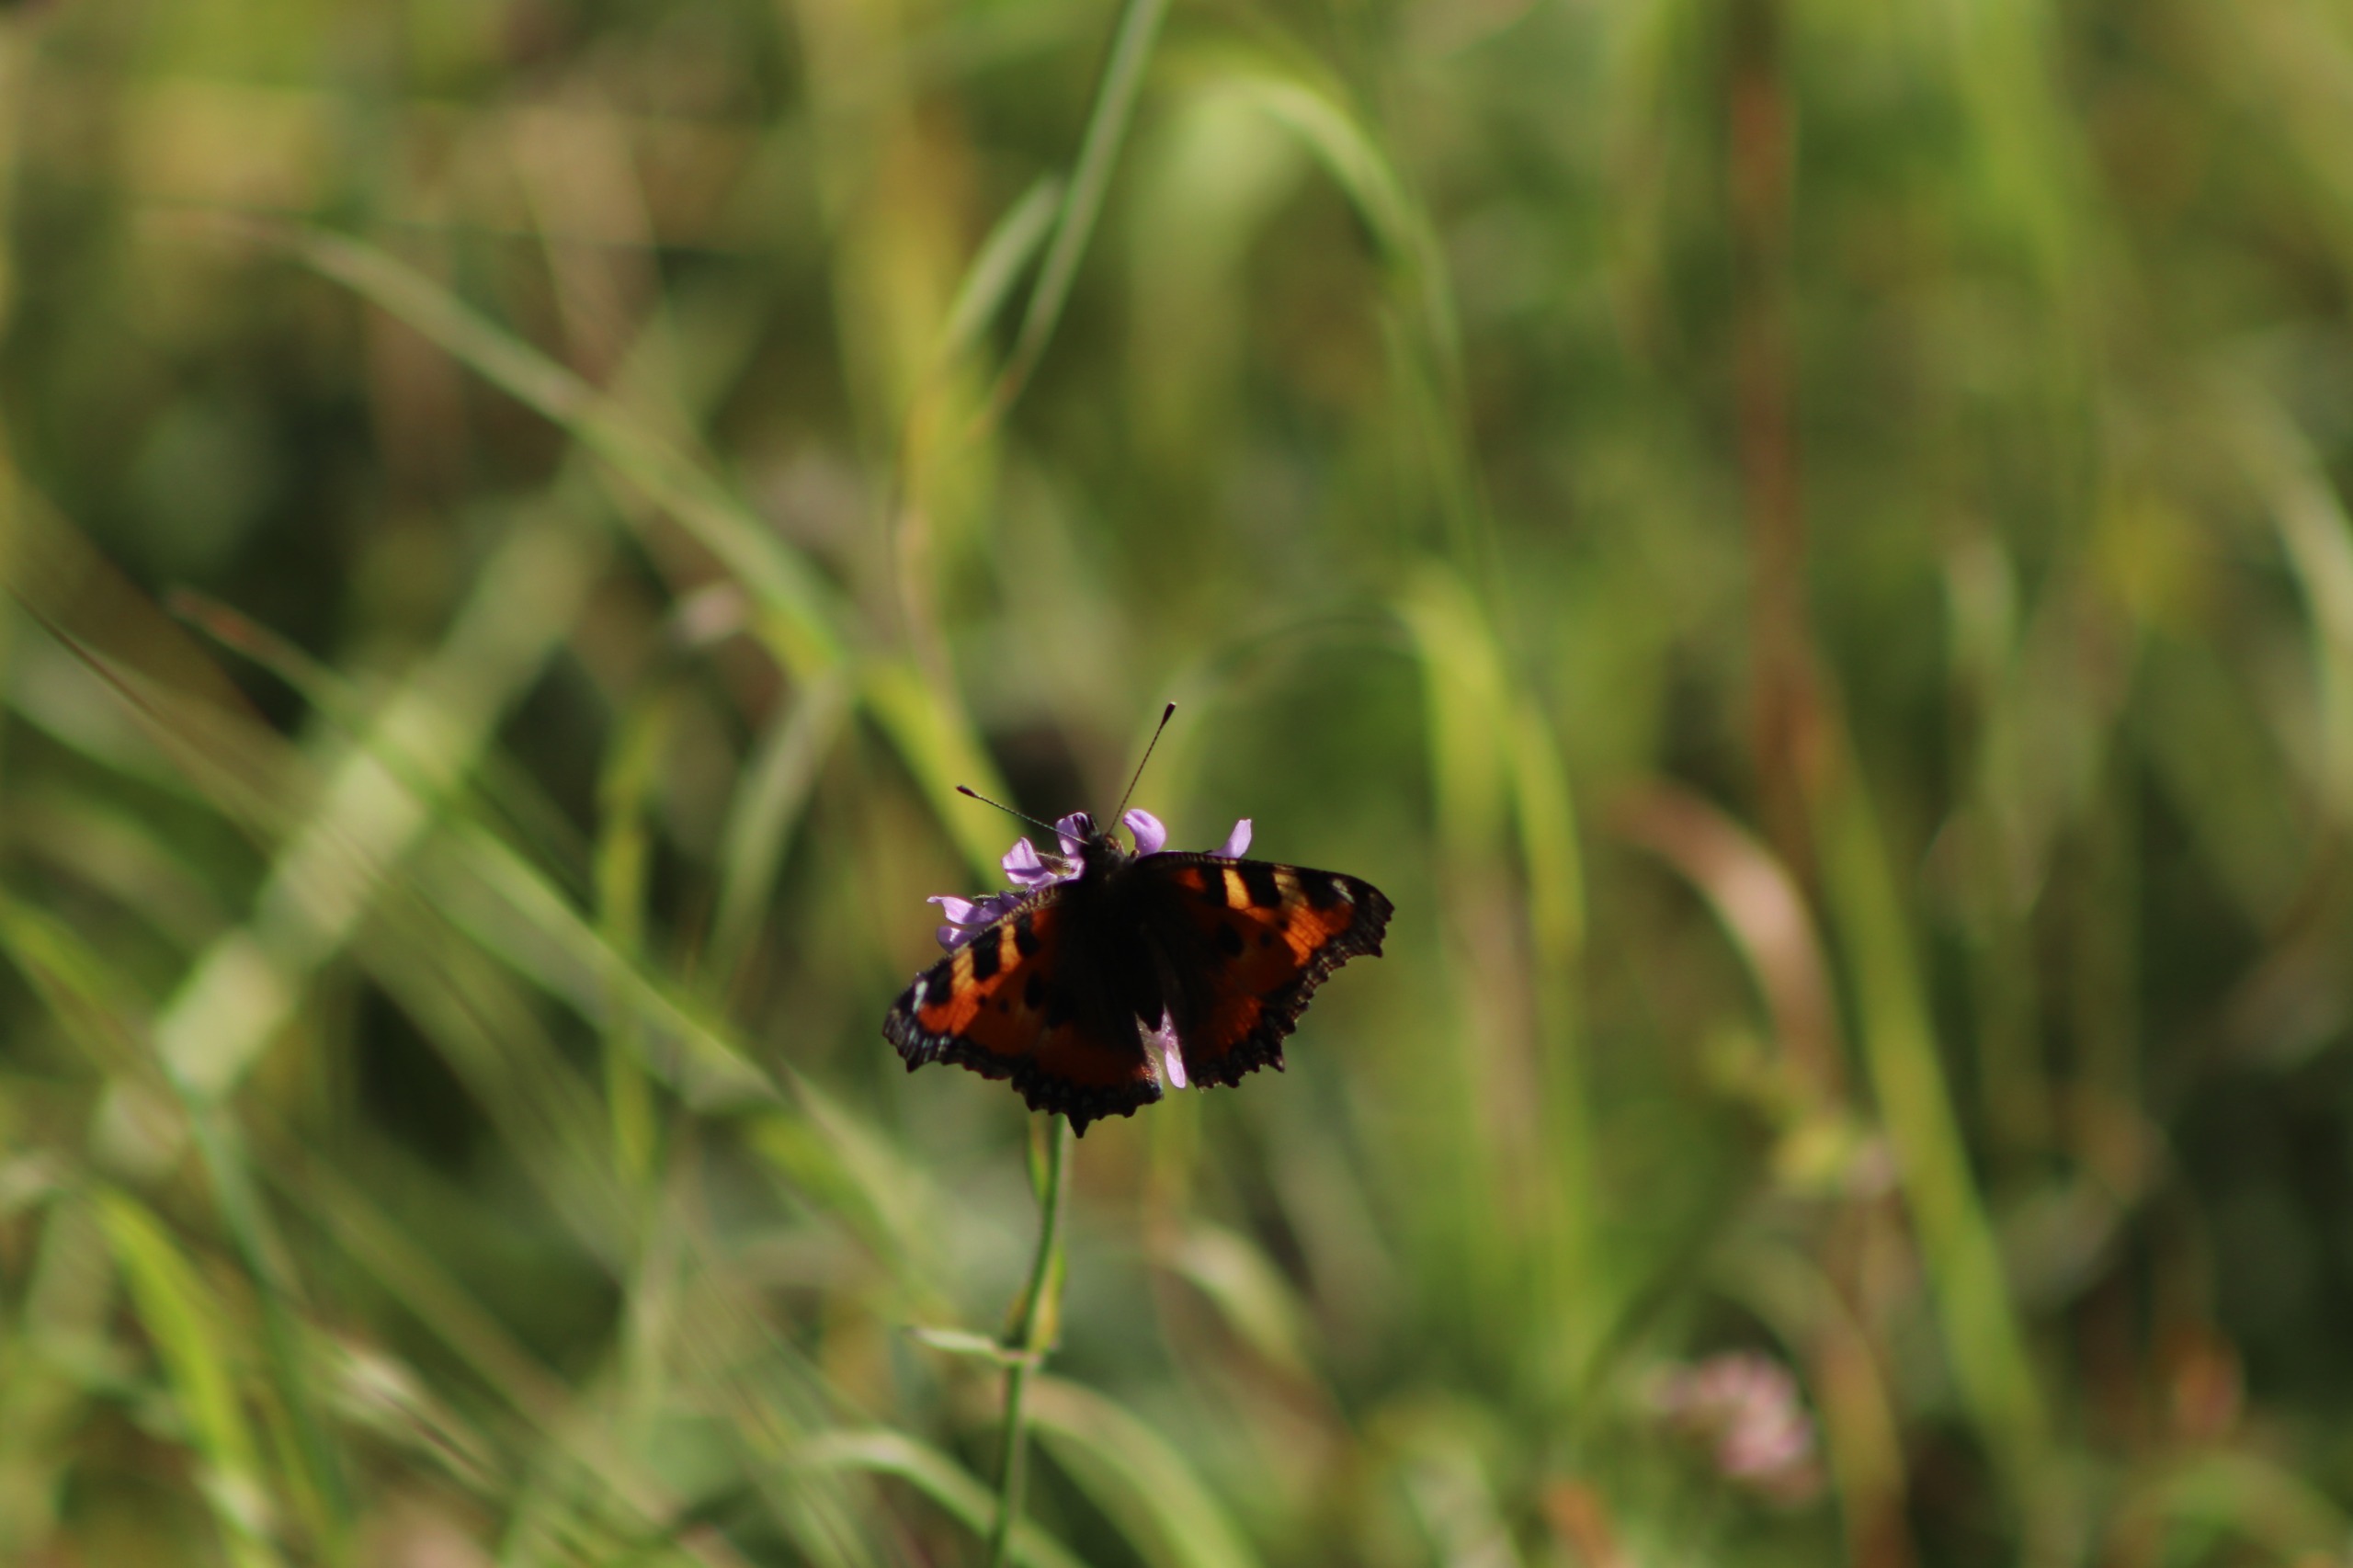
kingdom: Animalia
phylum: Arthropoda
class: Insecta
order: Lepidoptera
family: Nymphalidae
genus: Aglais
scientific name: Aglais urticae
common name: Nældens takvinge
